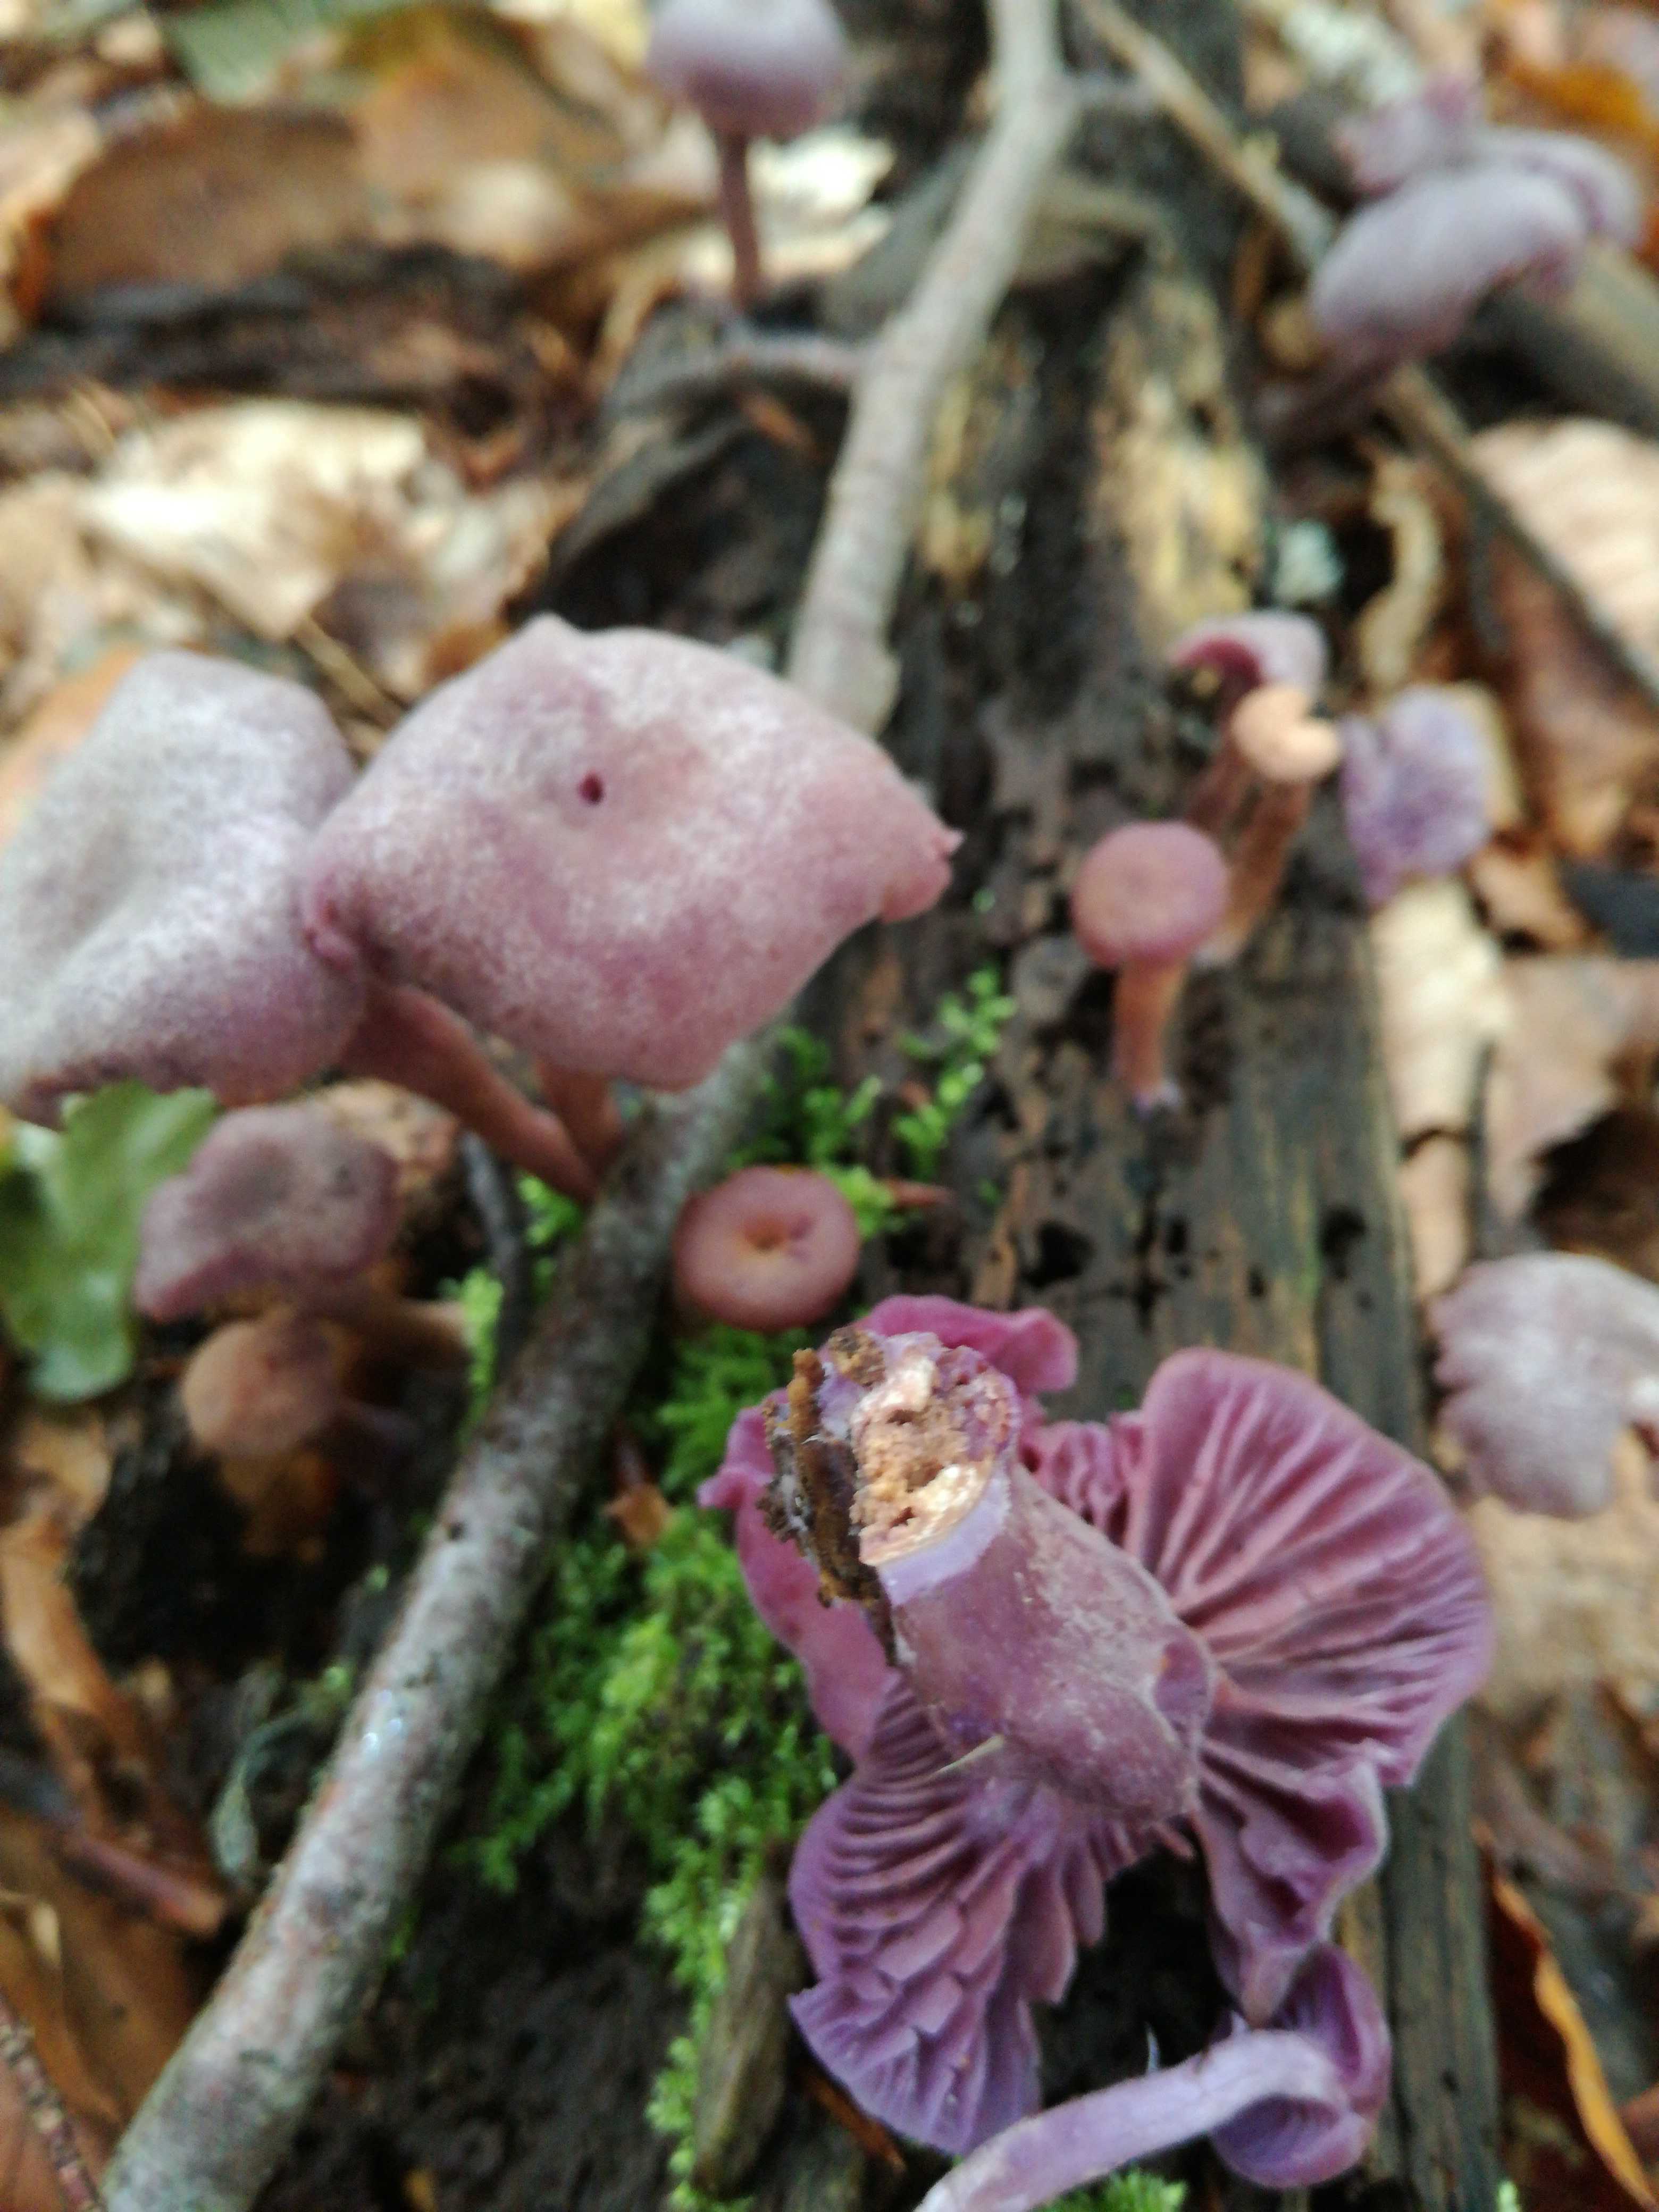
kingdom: Fungi
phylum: Basidiomycota
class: Agaricomycetes
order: Agaricales
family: Hydnangiaceae
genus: Laccaria
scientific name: Laccaria amethystina
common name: violet ametysthat
